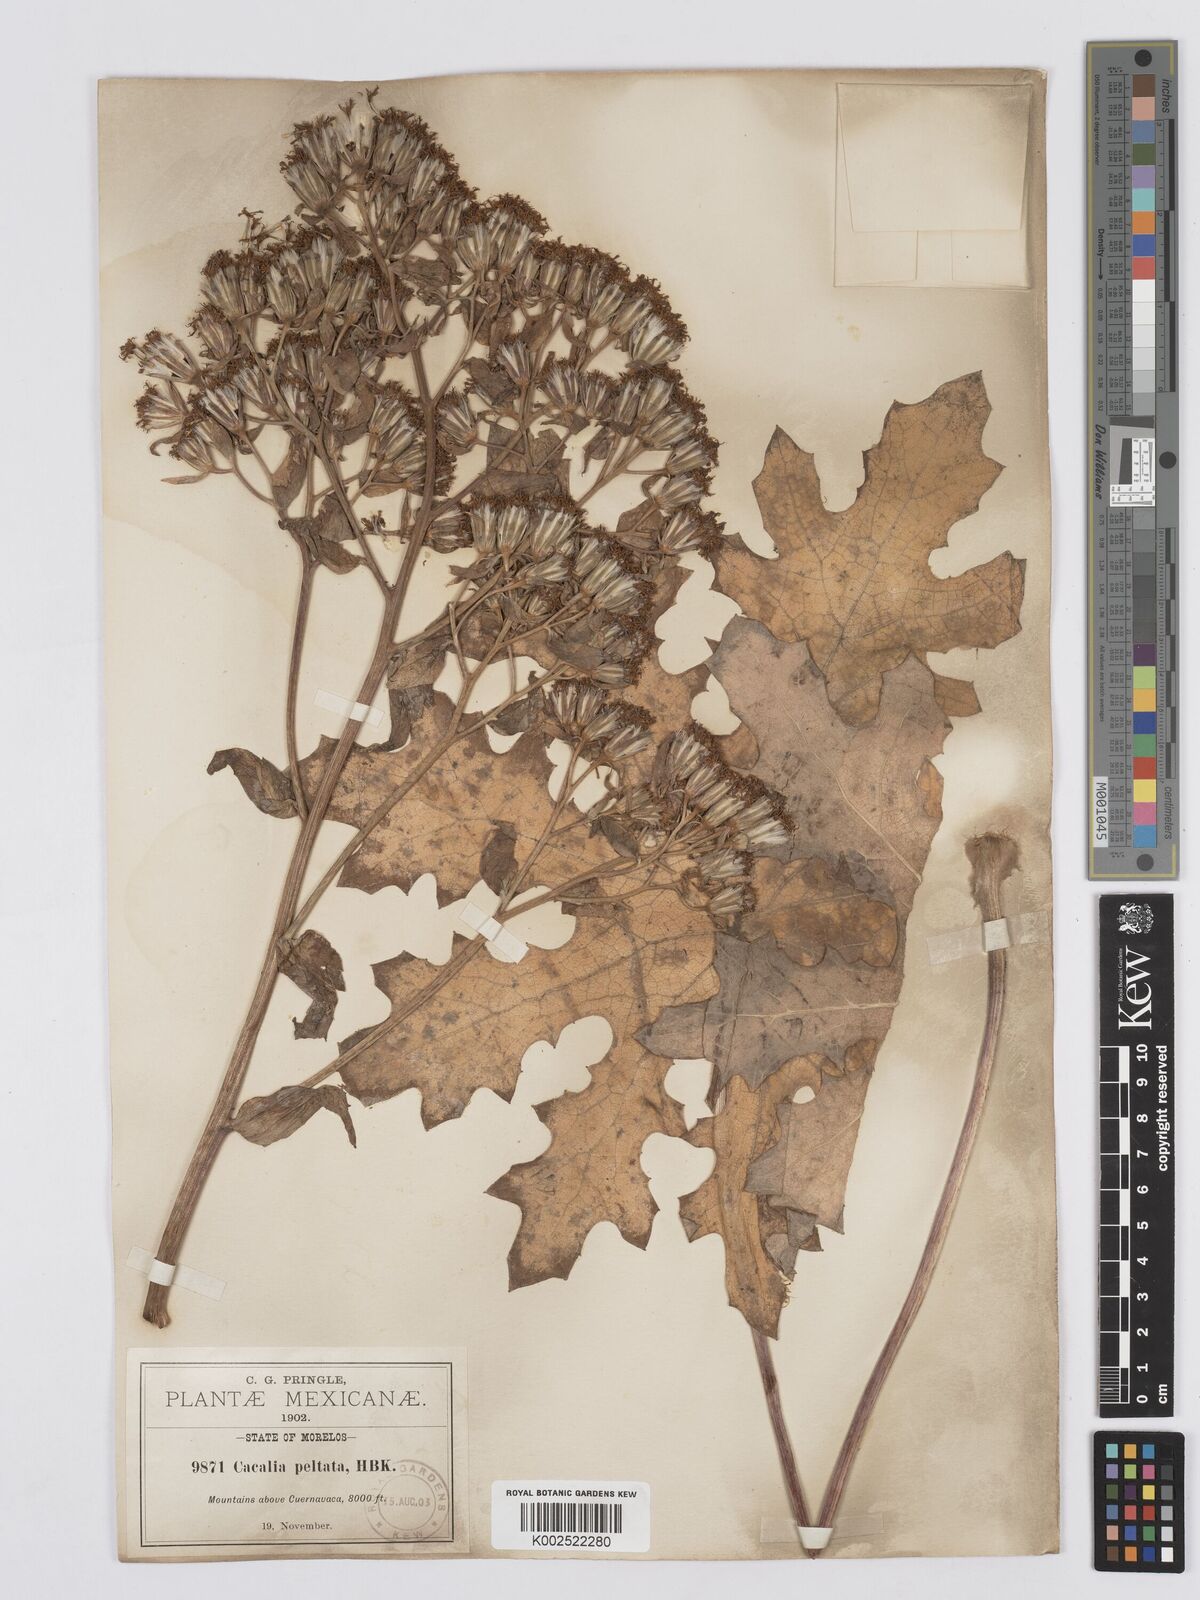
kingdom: Plantae
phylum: Tracheophyta
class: Magnoliopsida
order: Asterales
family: Asteraceae
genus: Psacalium
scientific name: Psacalium peltatum
